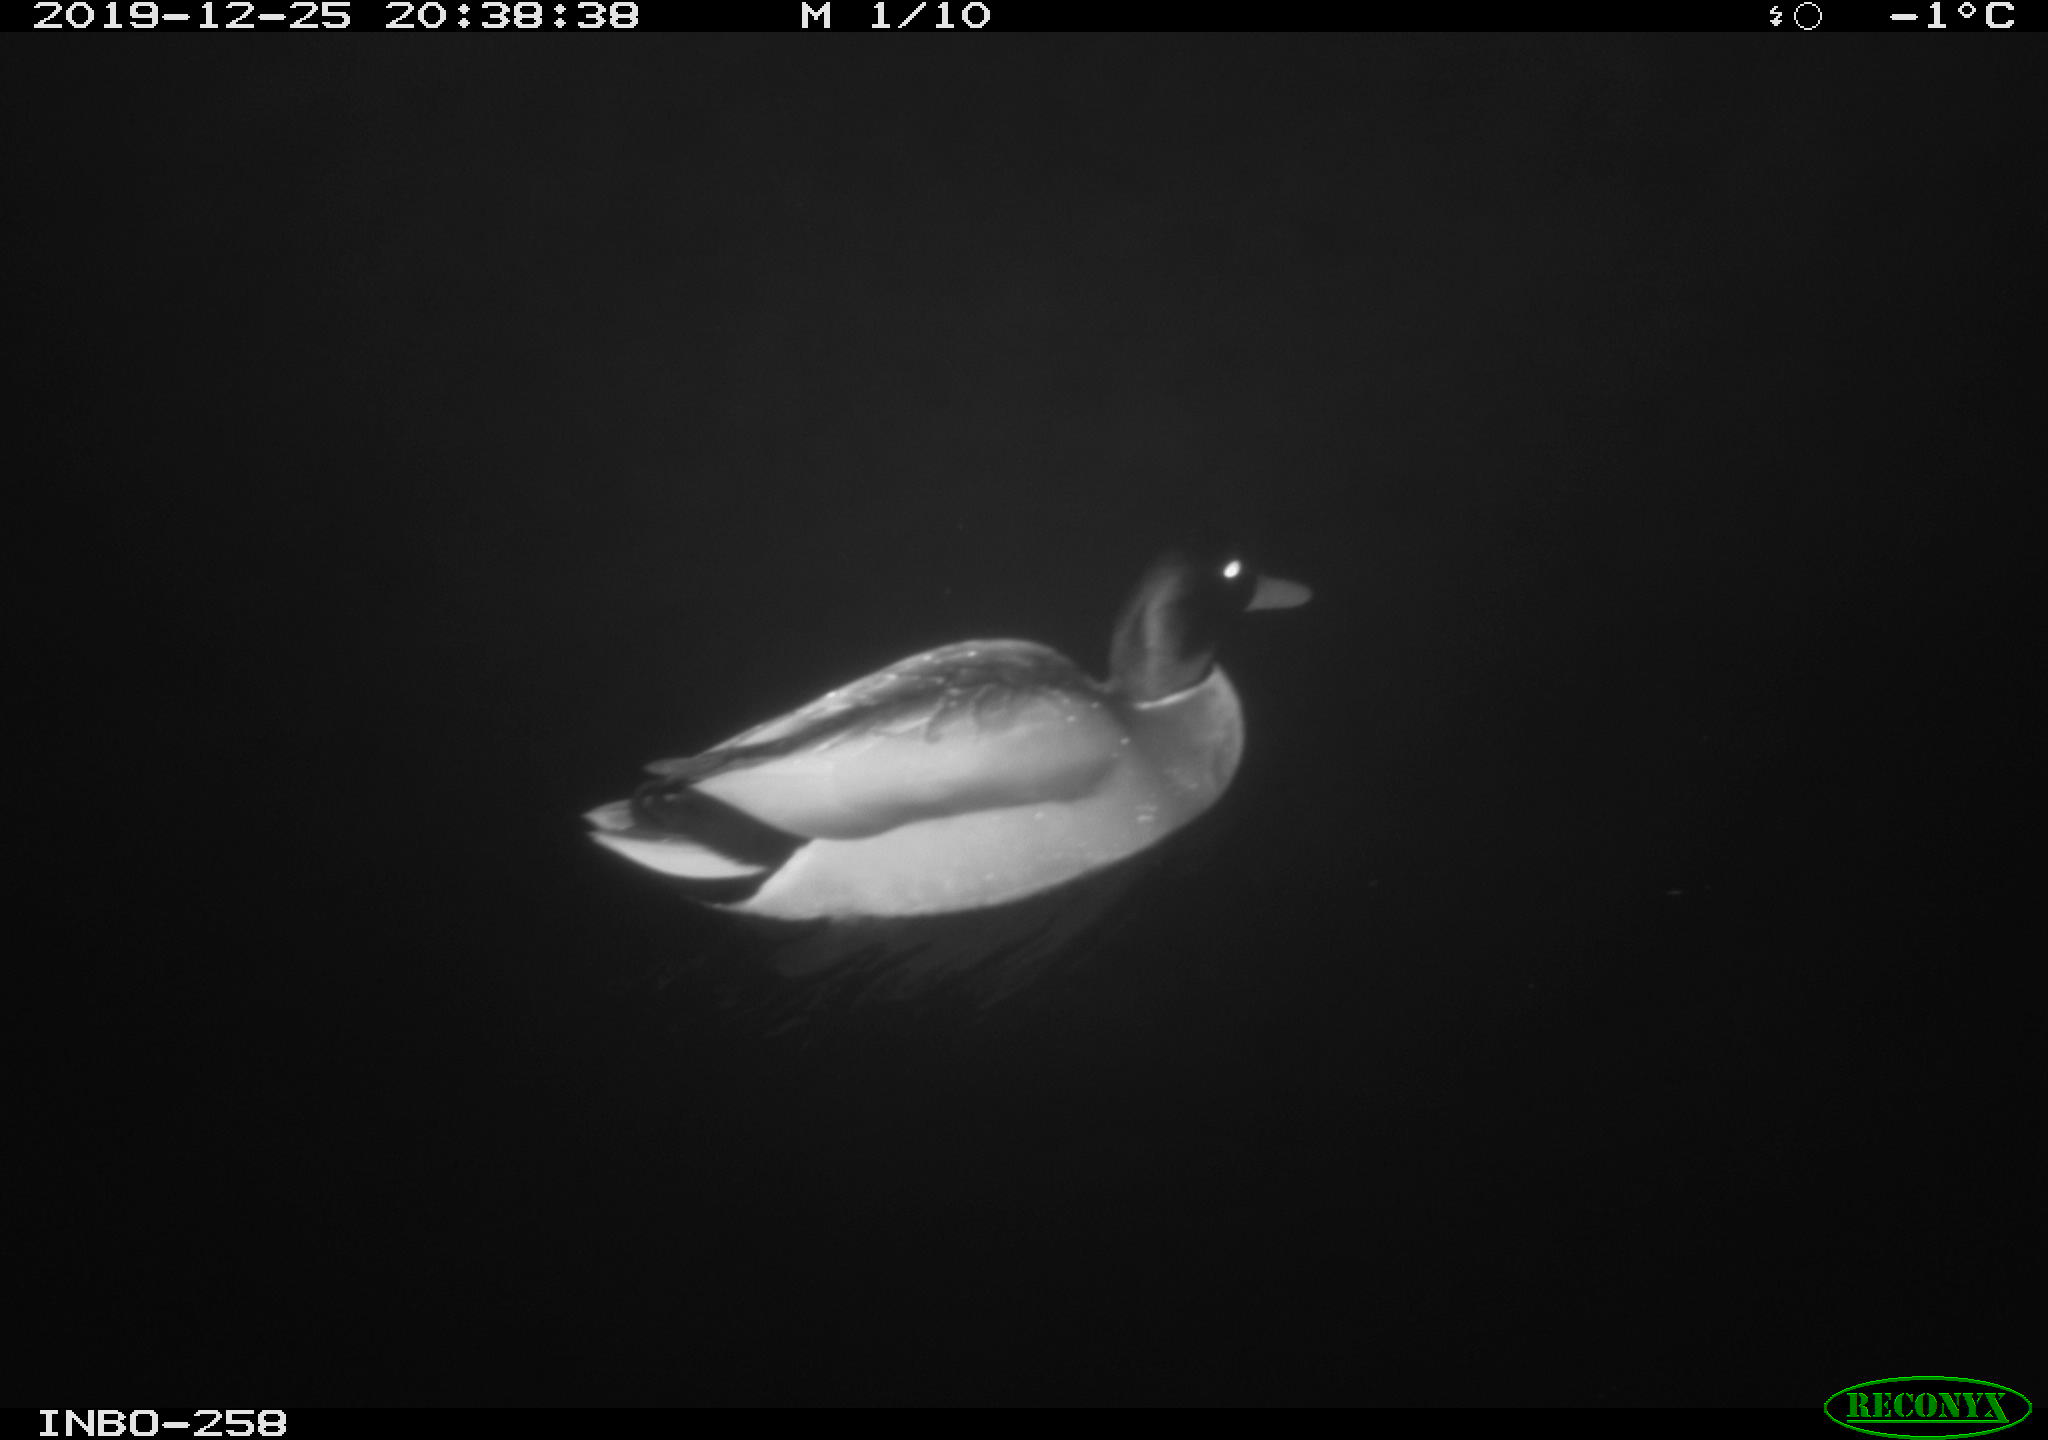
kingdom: Animalia
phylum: Chordata
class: Aves
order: Anseriformes
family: Anatidae
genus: Anas
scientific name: Anas platyrhynchos
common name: Mallard
